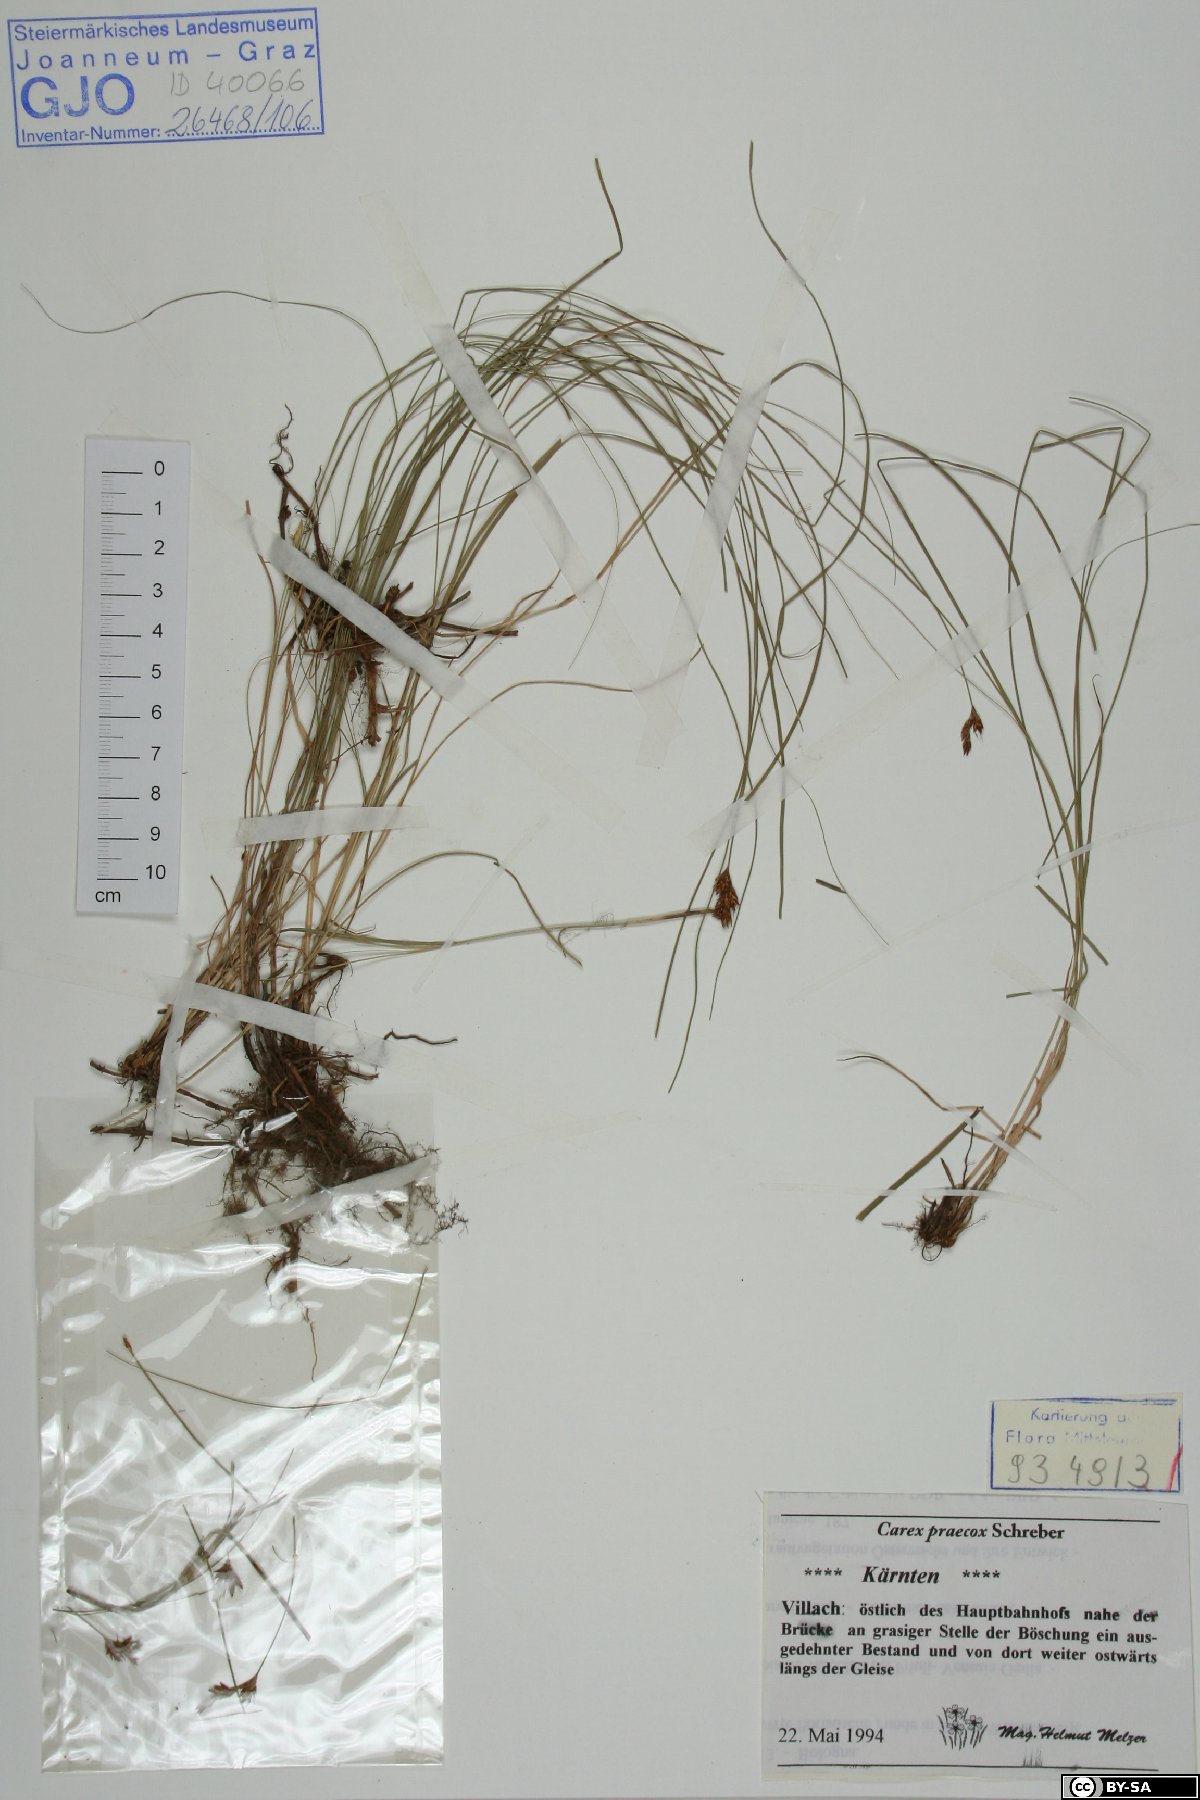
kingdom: Plantae
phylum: Tracheophyta
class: Liliopsida
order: Poales
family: Cyperaceae
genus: Carex
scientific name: Carex praecox
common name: Early sedge
